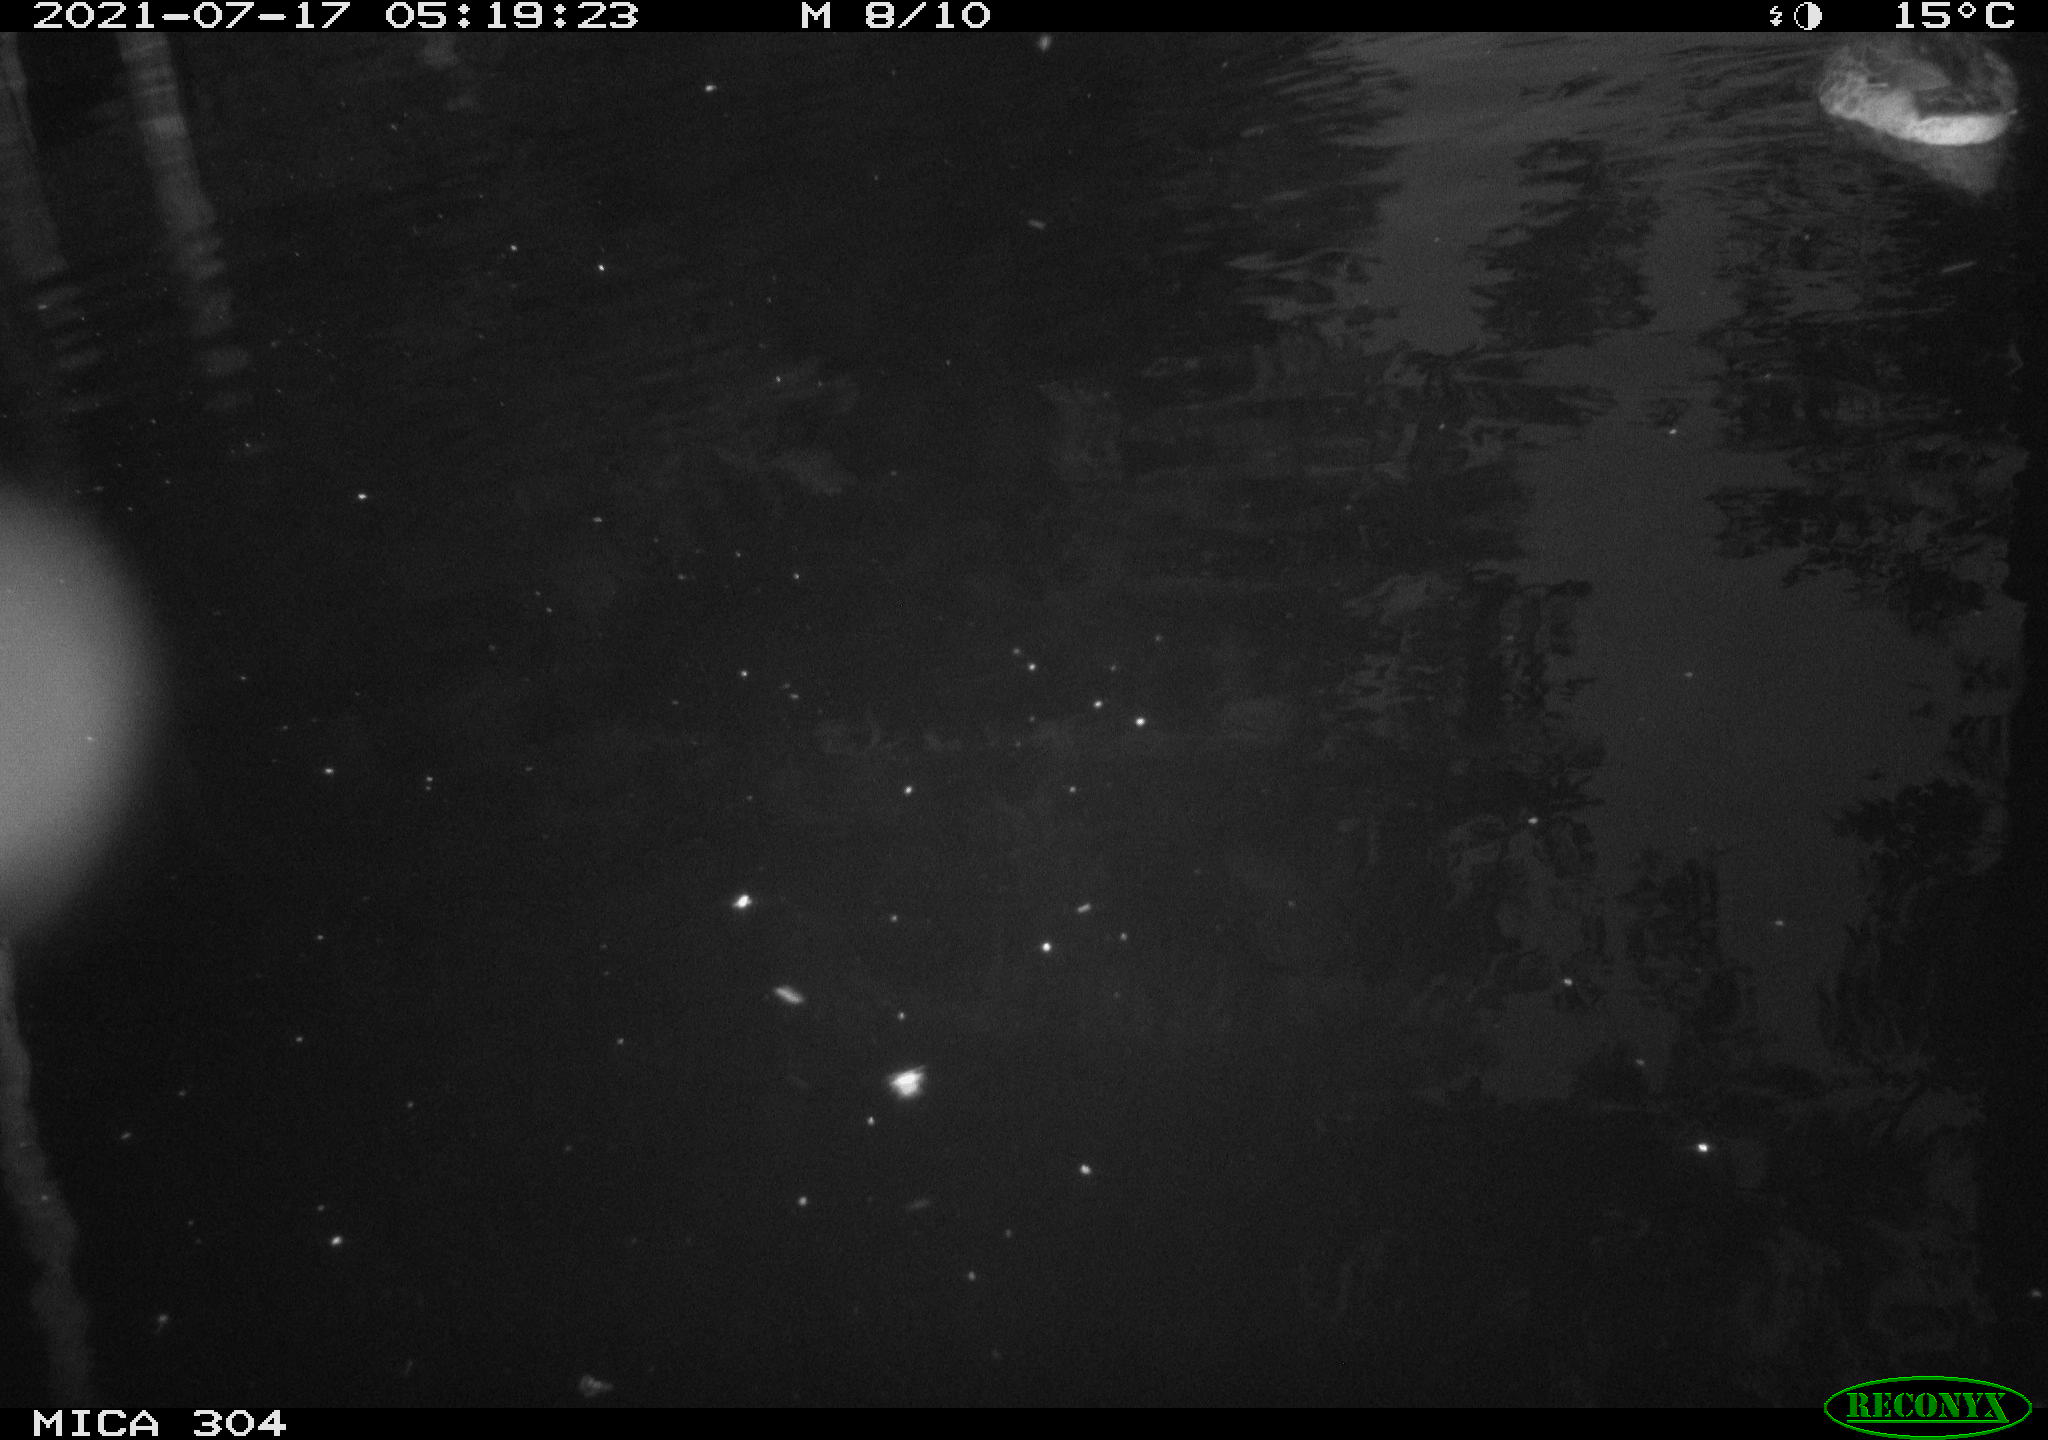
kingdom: Animalia
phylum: Chordata
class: Aves
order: Anseriformes
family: Anatidae
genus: Mareca
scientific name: Mareca strepera
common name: Gadwall
